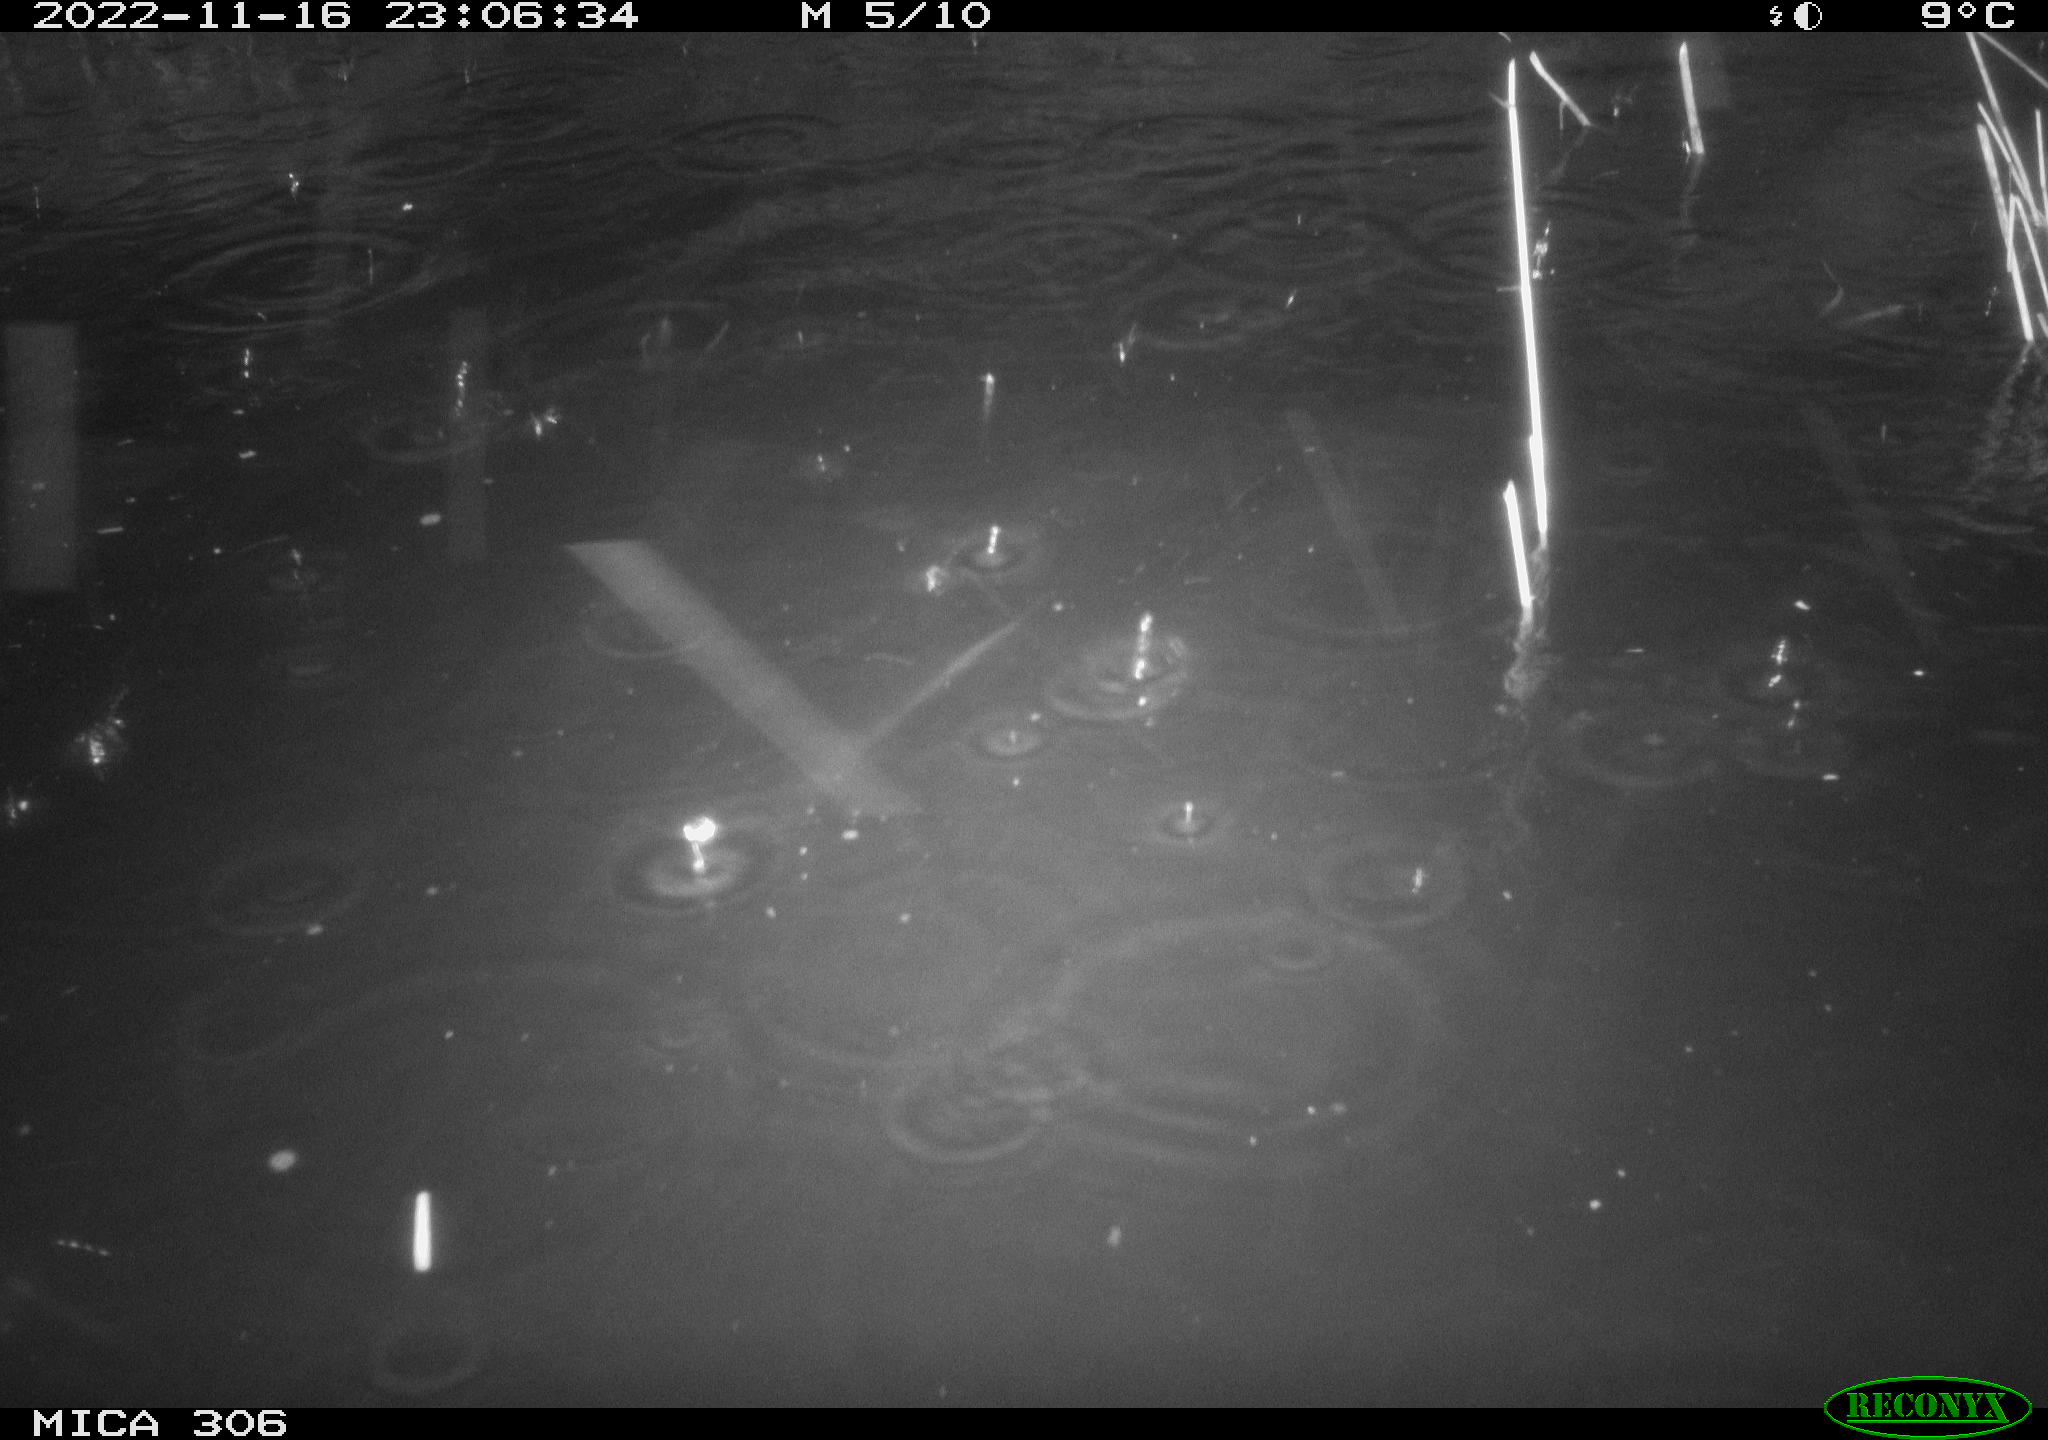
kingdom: Animalia
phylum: Chordata
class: Mammalia
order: Rodentia
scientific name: Rodentia
